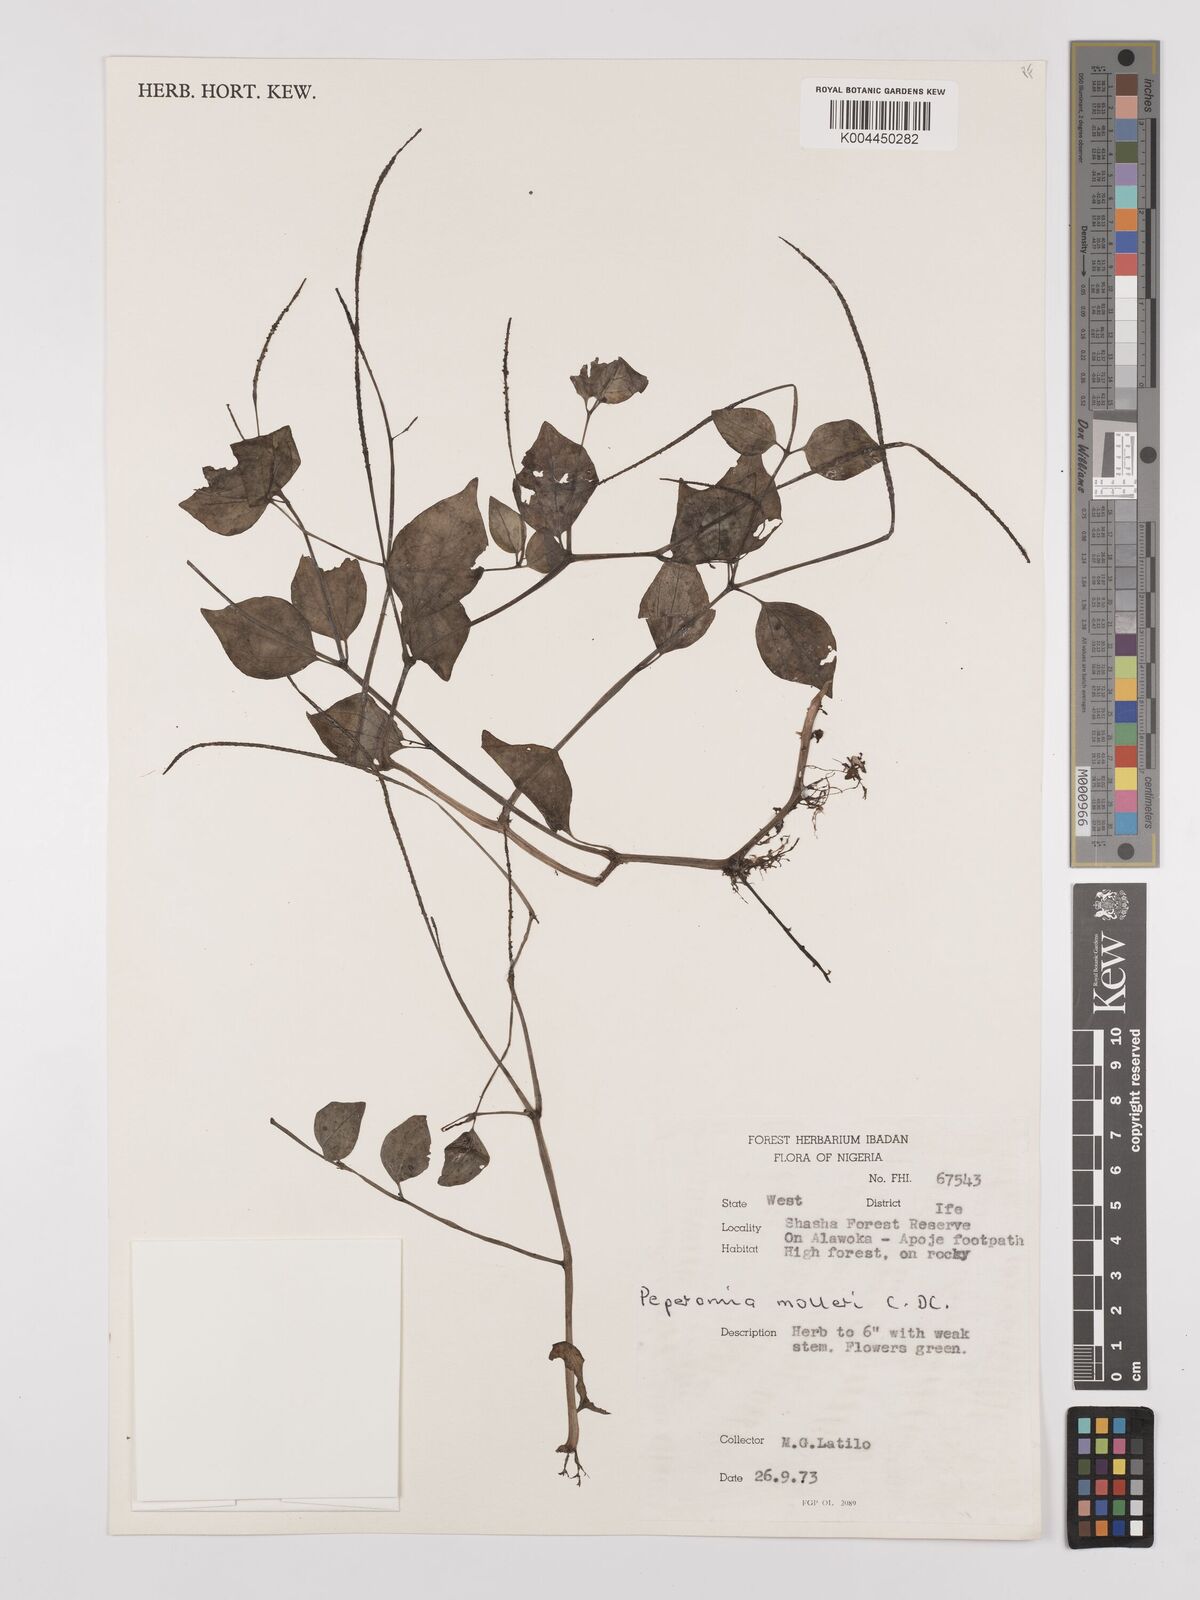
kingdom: Plantae
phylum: Tracheophyta
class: Magnoliopsida
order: Piperales
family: Piperaceae
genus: Peperomia
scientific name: Peperomia molleri
